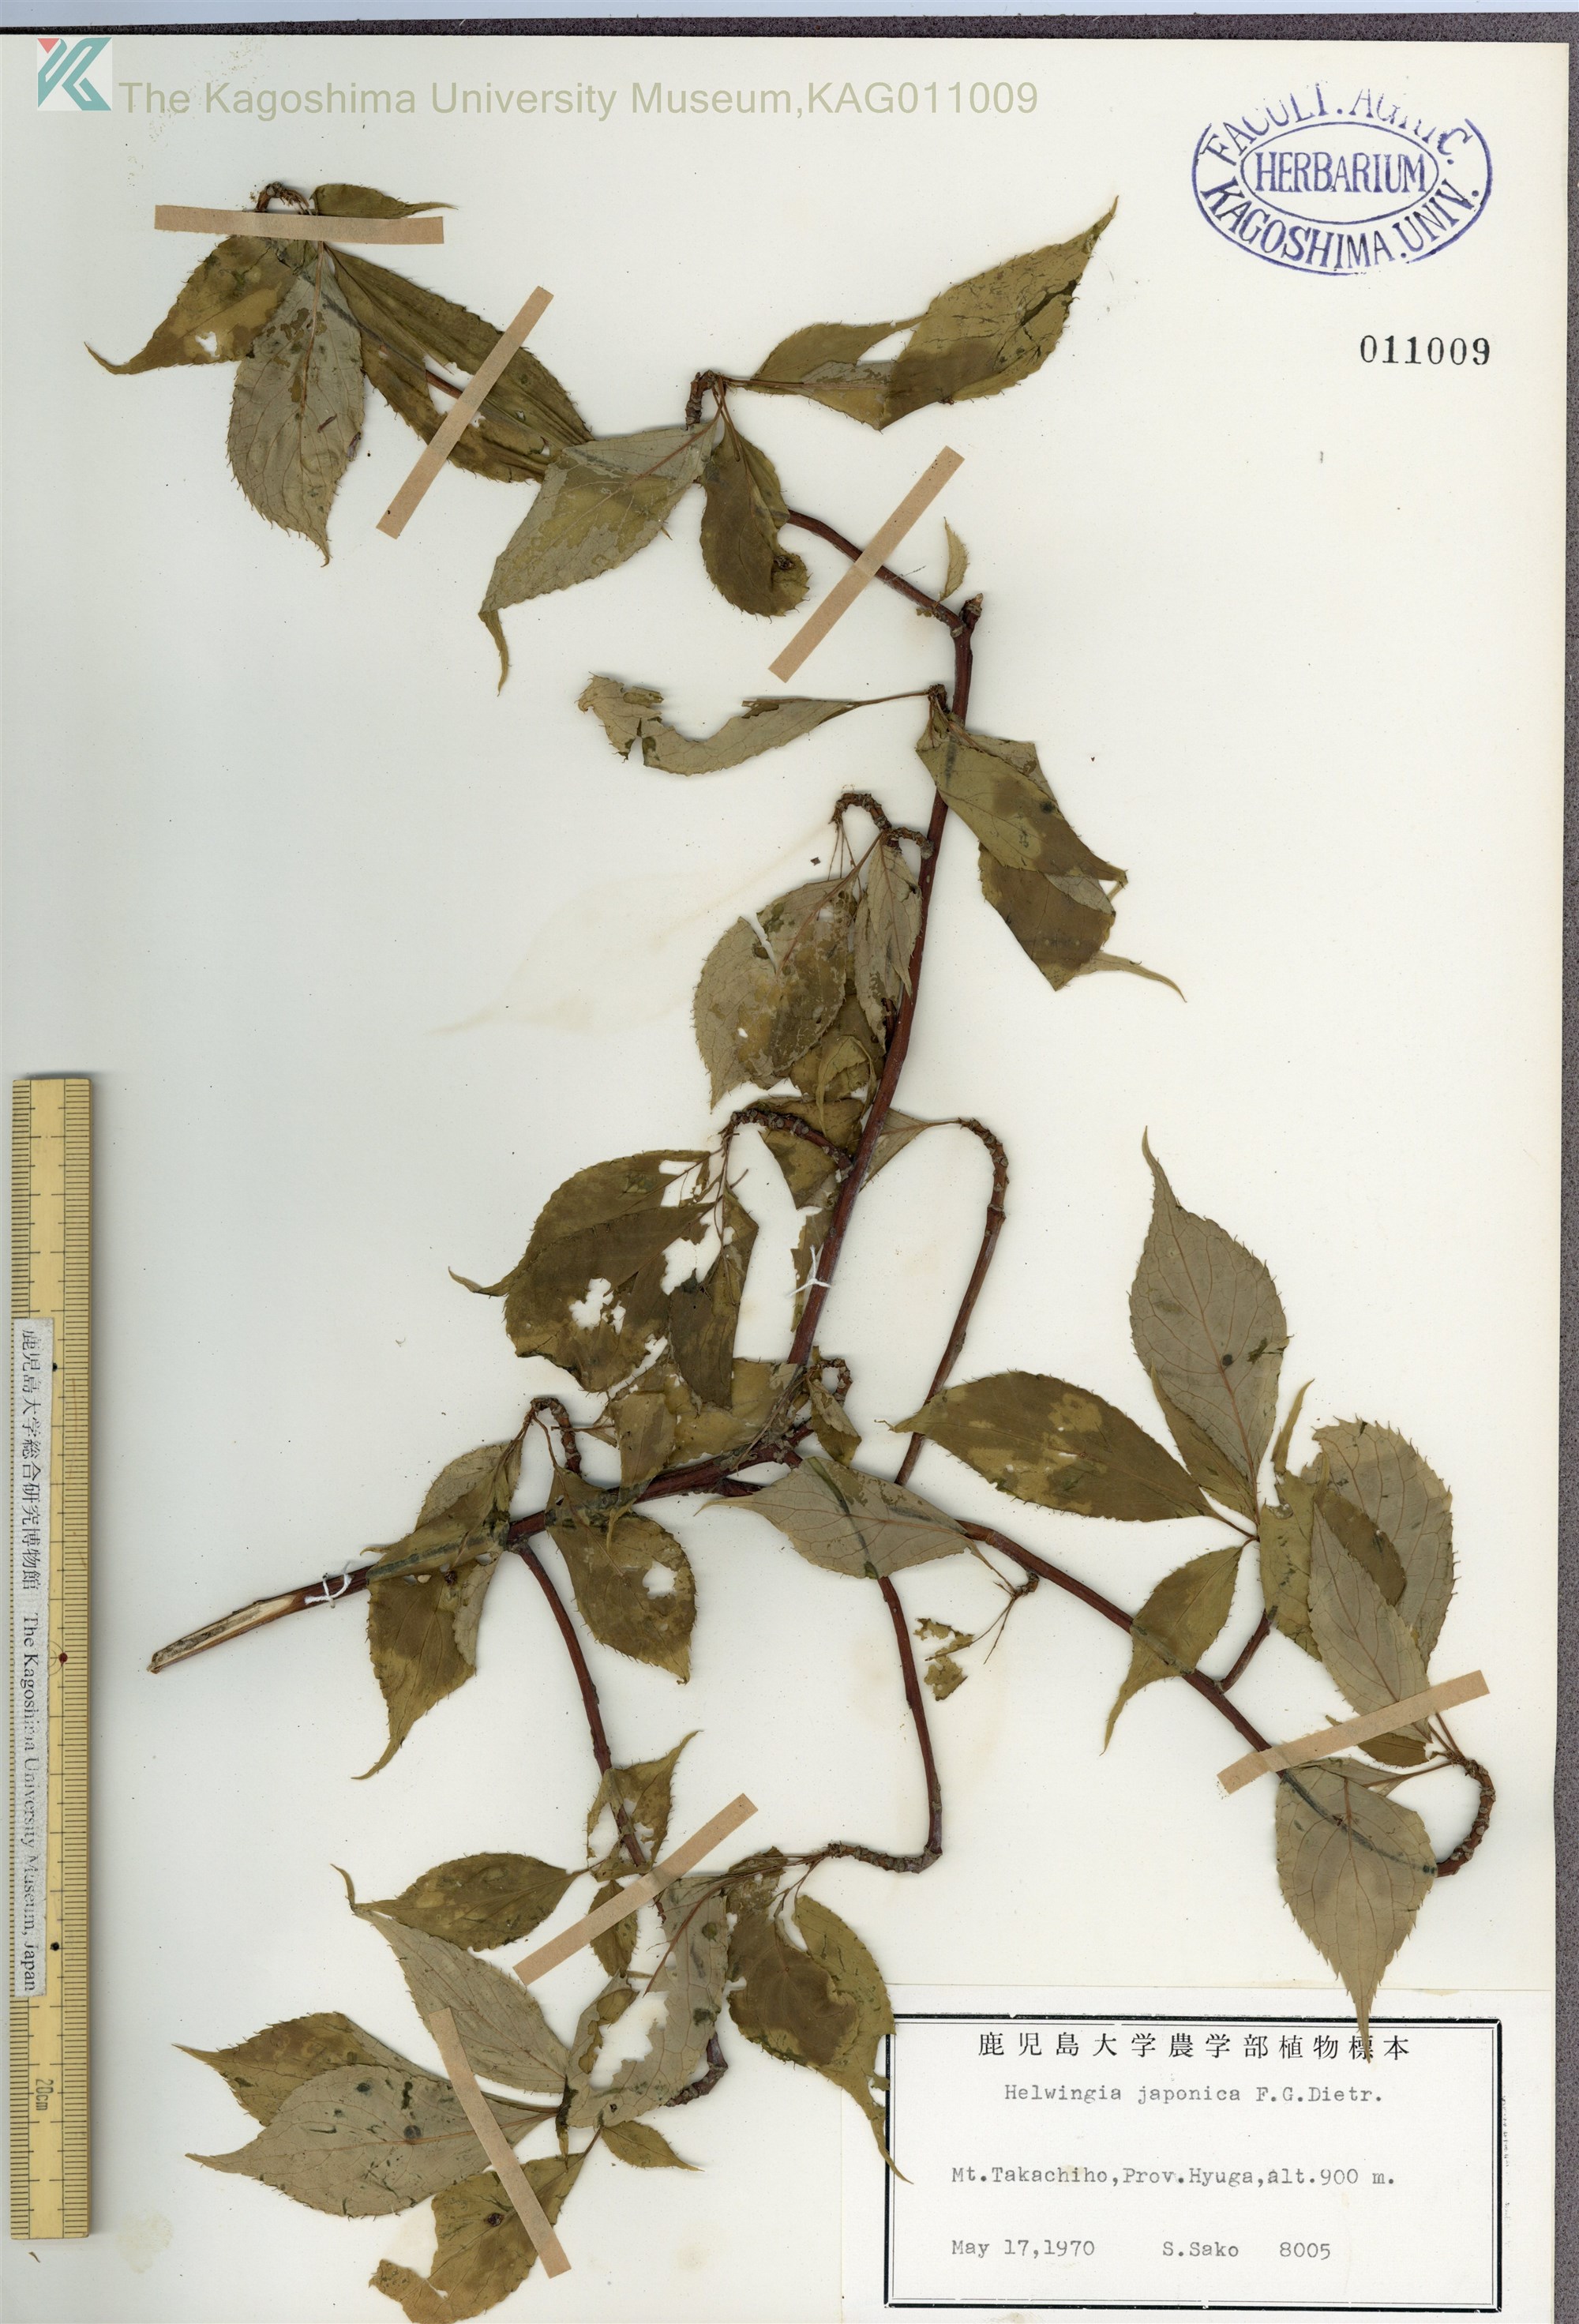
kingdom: Plantae
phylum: Tracheophyta
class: Magnoliopsida
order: Aquifoliales
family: Helwingiaceae
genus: Helwingia
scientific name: Helwingia japonica
